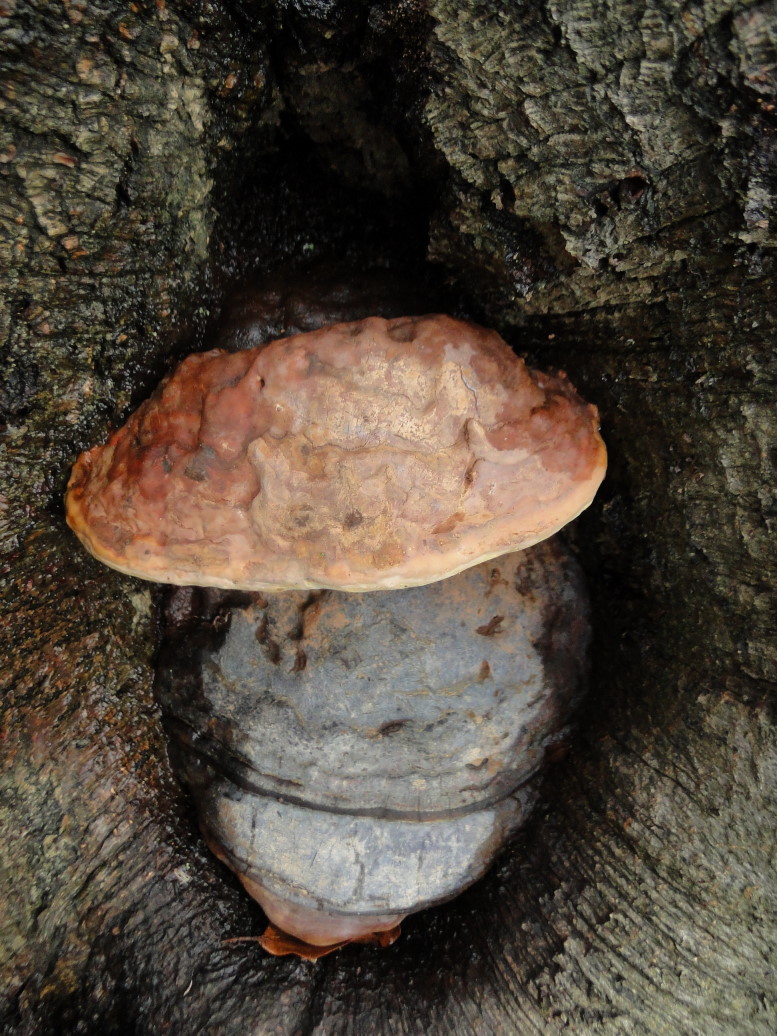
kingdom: Fungi
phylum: Basidiomycota
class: Agaricomycetes
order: Polyporales
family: Polyporaceae
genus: Ganoderma
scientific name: Ganoderma pfeifferi
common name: kobberrød lakporesvamp
